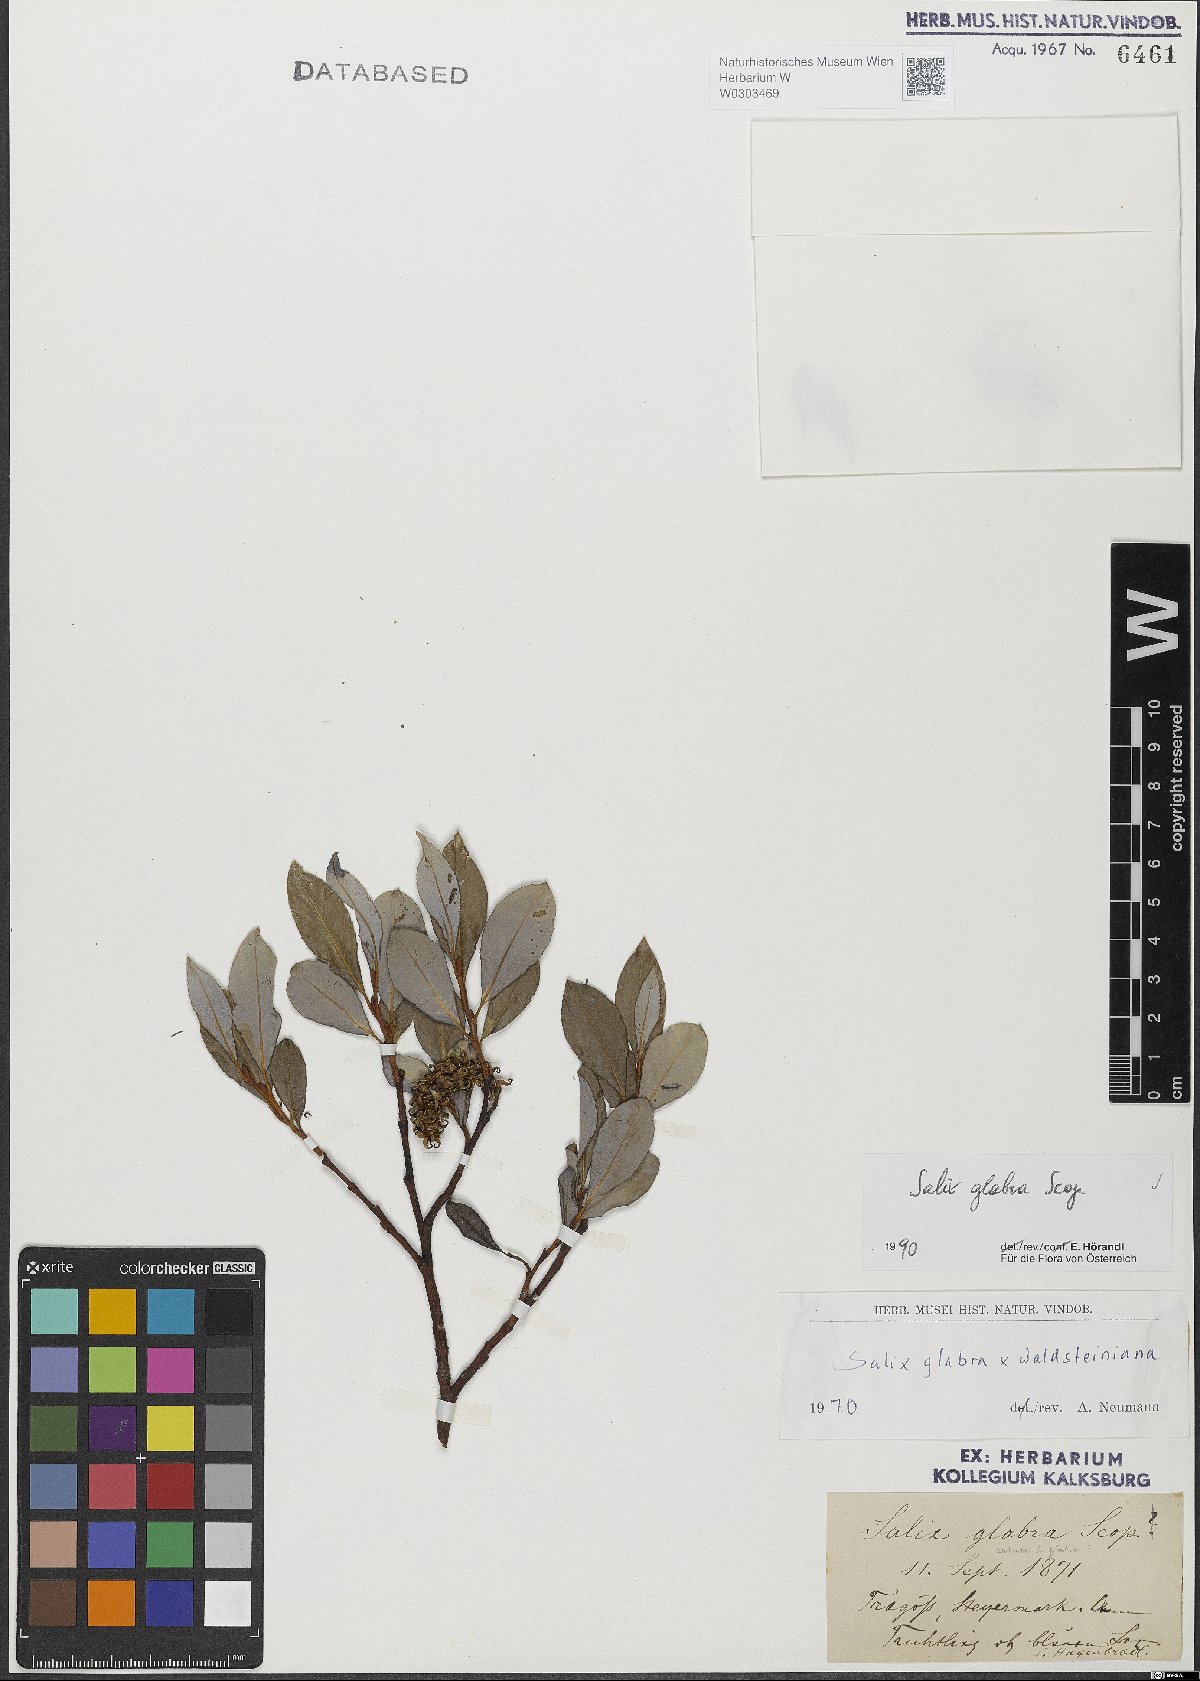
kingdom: Plantae
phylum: Tracheophyta
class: Magnoliopsida
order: Malpighiales
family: Salicaceae
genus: Salix
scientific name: Salix glabra
